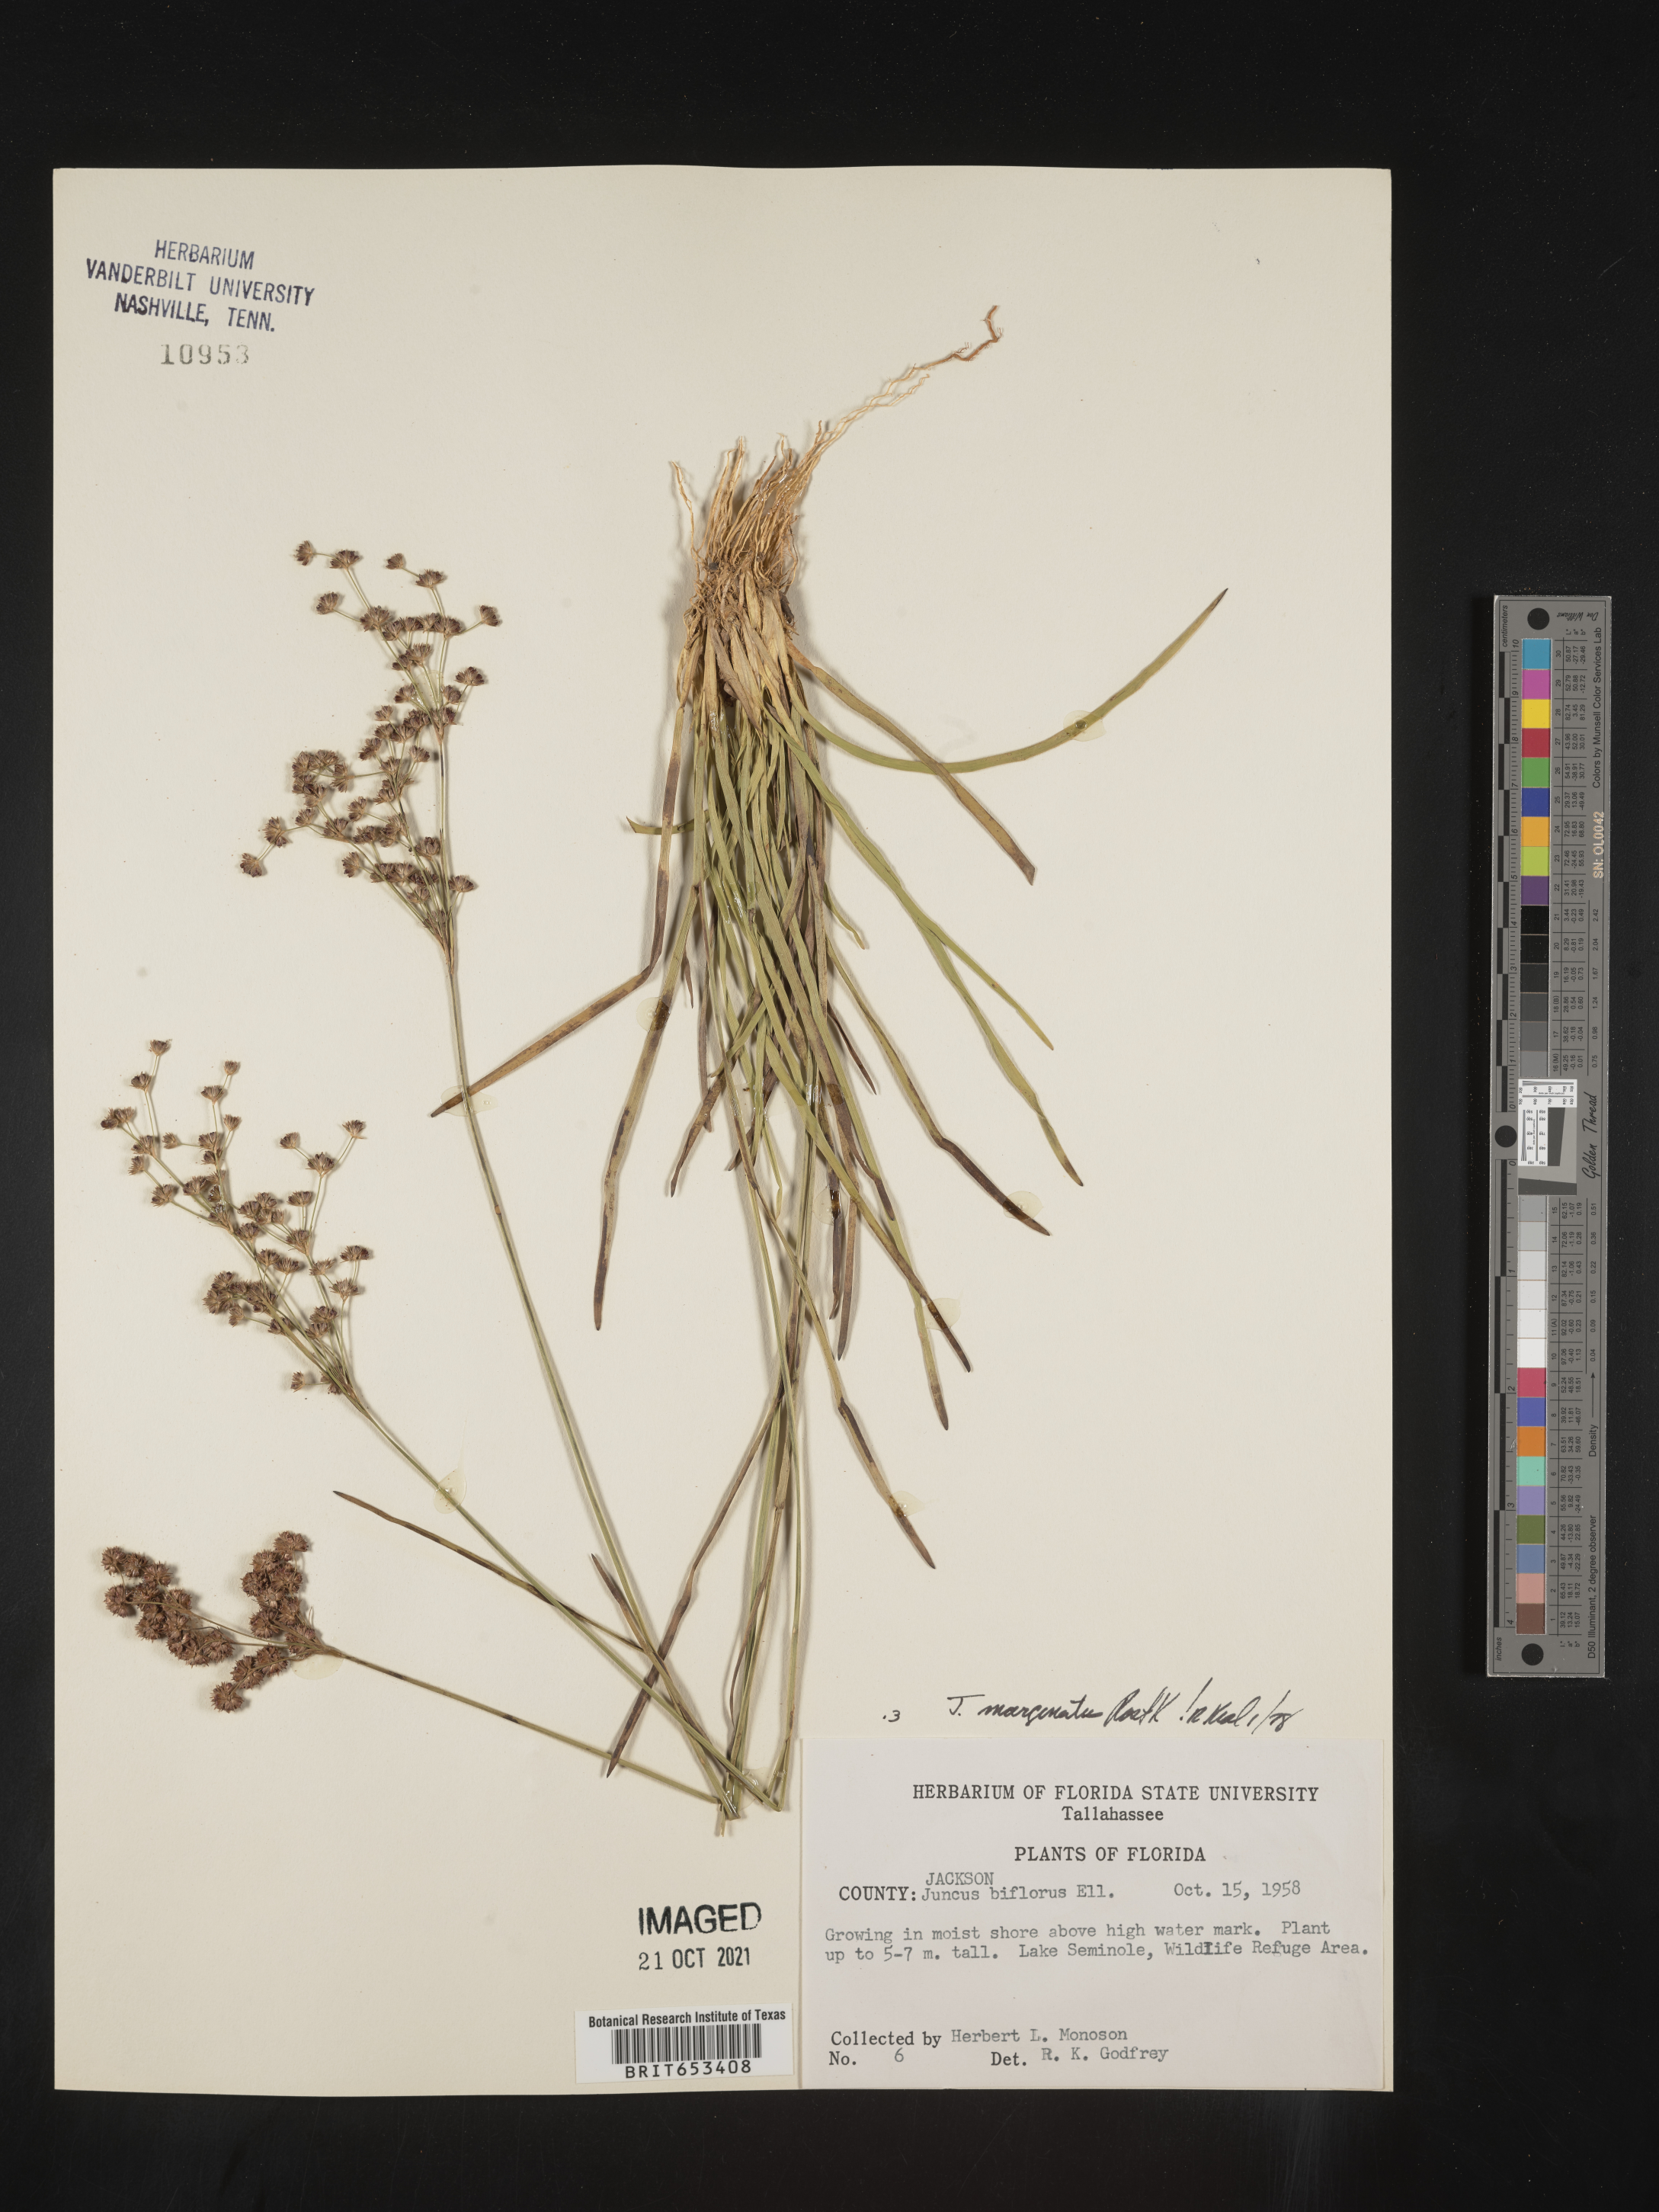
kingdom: Plantae
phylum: Tracheophyta
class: Liliopsida
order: Poales
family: Juncaceae
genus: Juncus
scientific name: Juncus marginatus
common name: Grass-leaf rush
